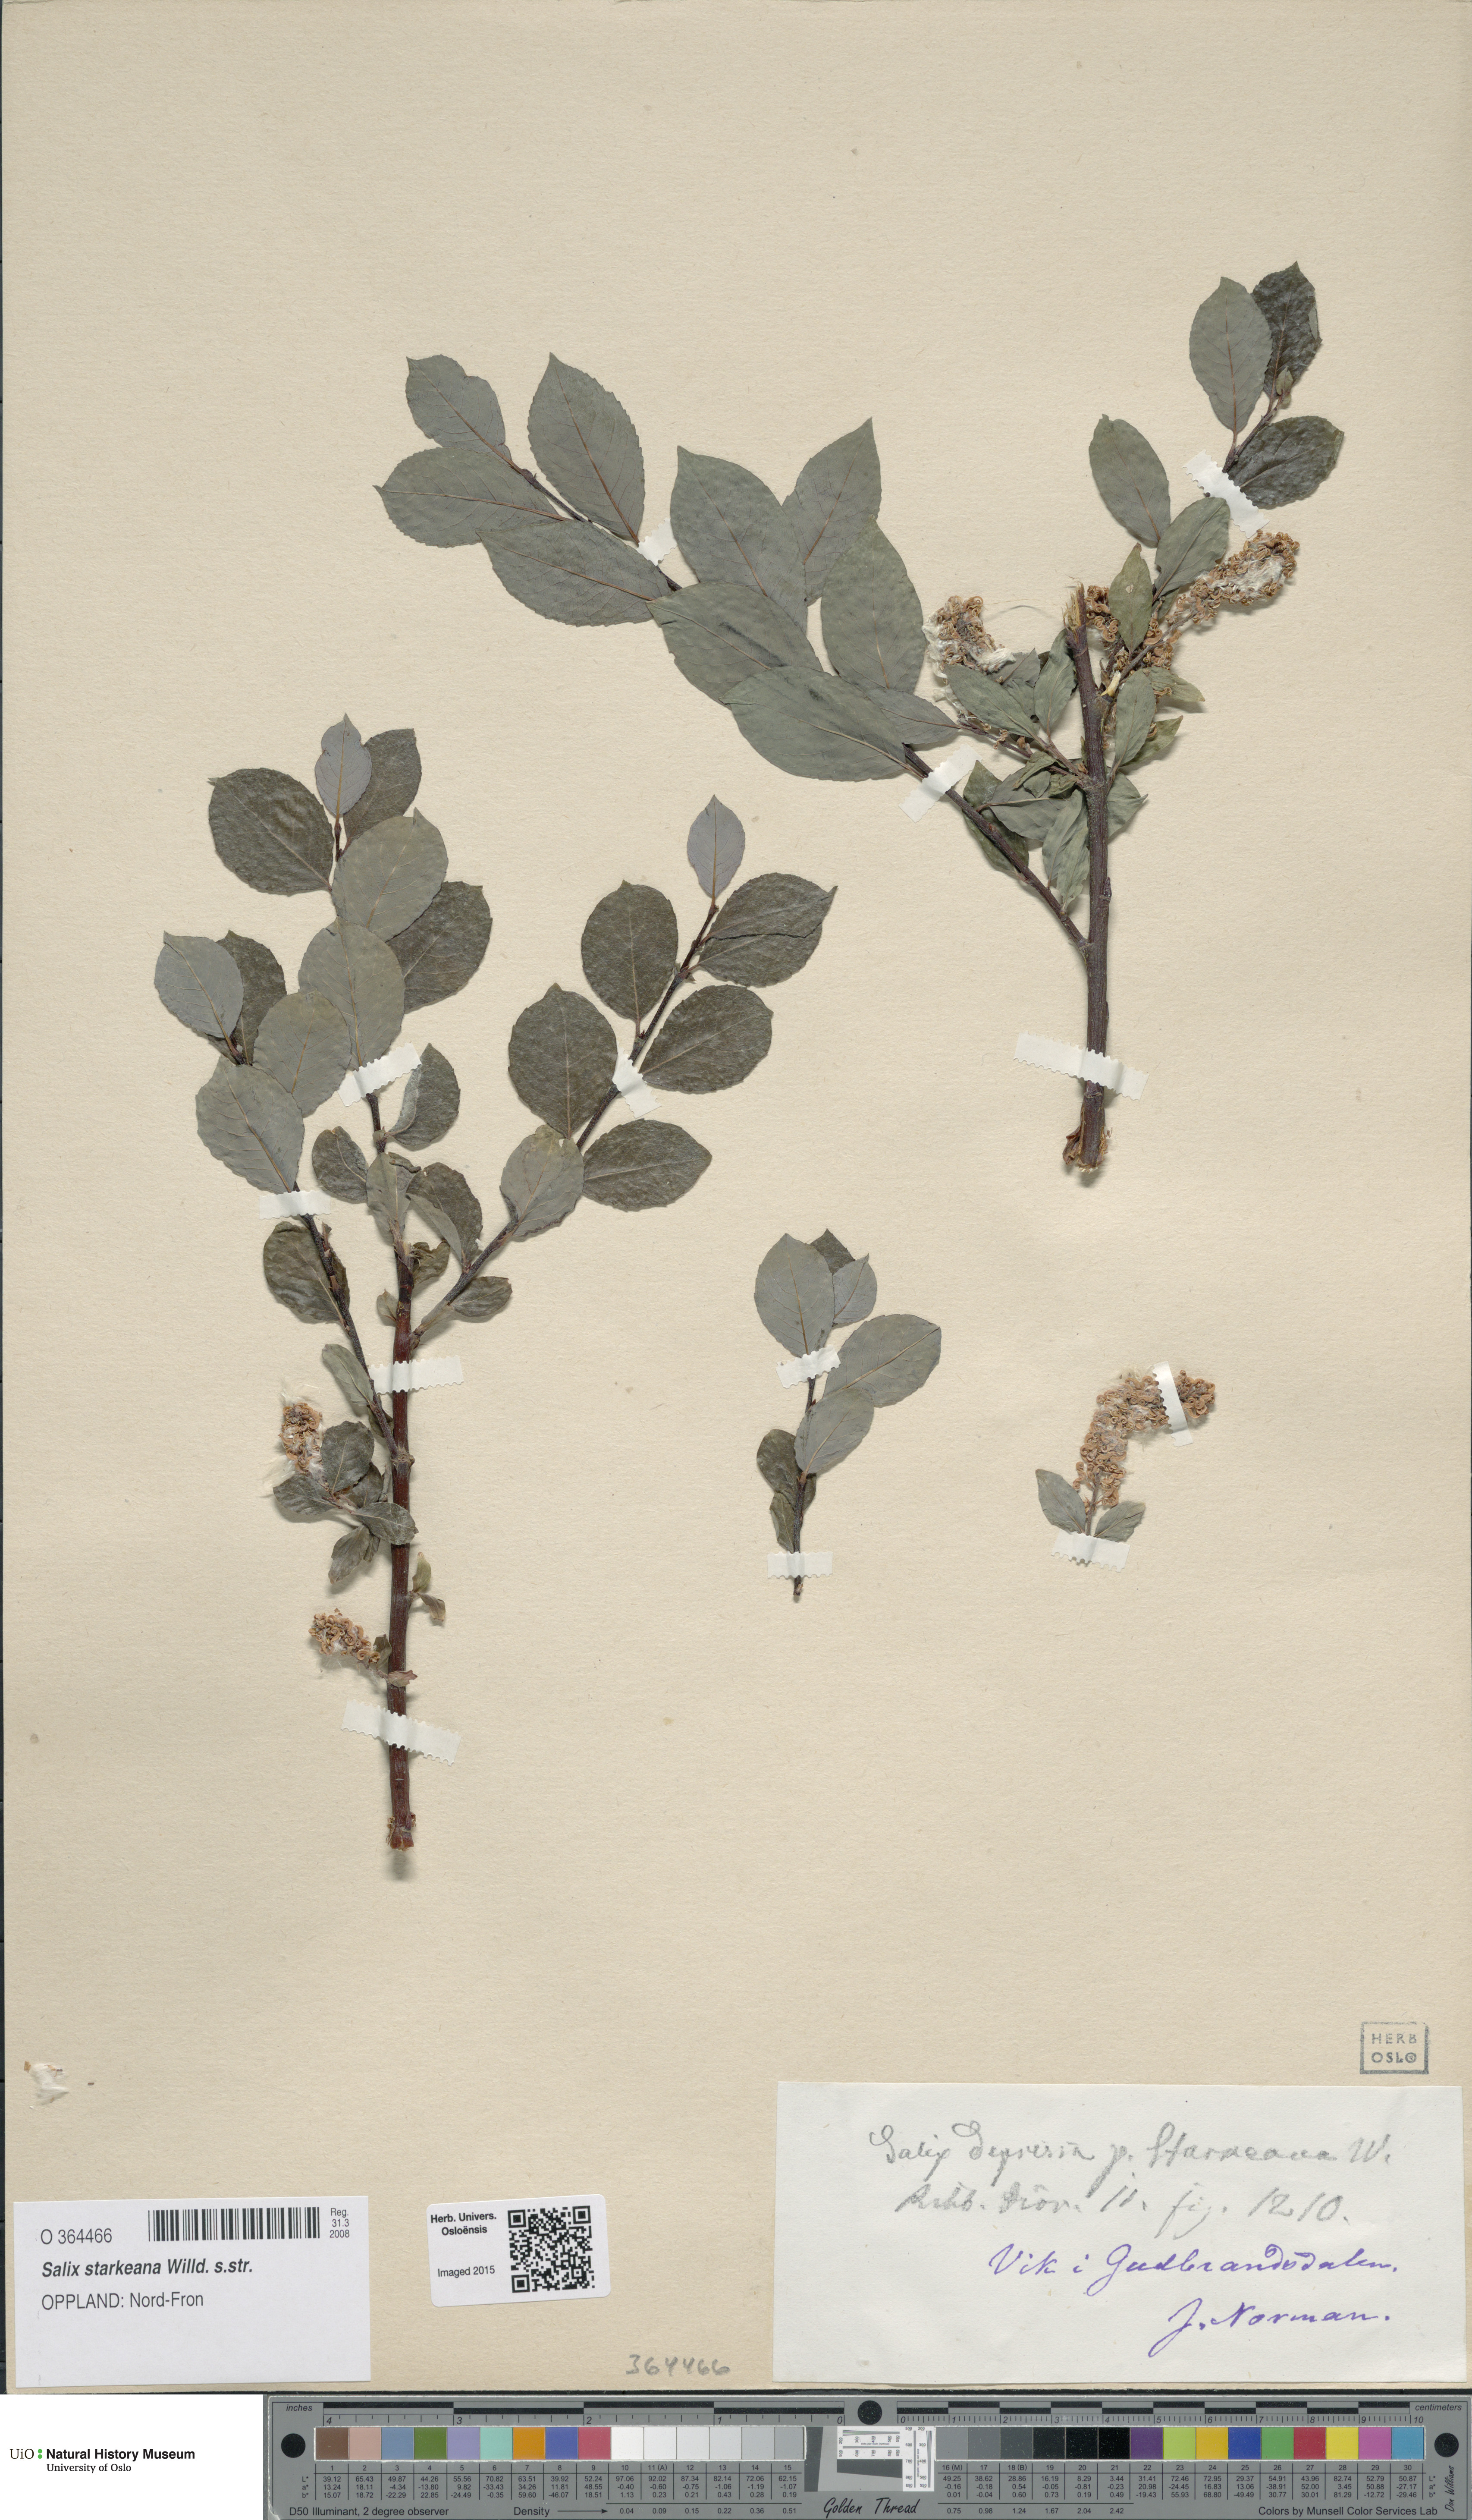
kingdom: Plantae
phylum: Tracheophyta
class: Magnoliopsida
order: Malpighiales
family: Salicaceae
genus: Salix
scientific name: Salix starkeana
